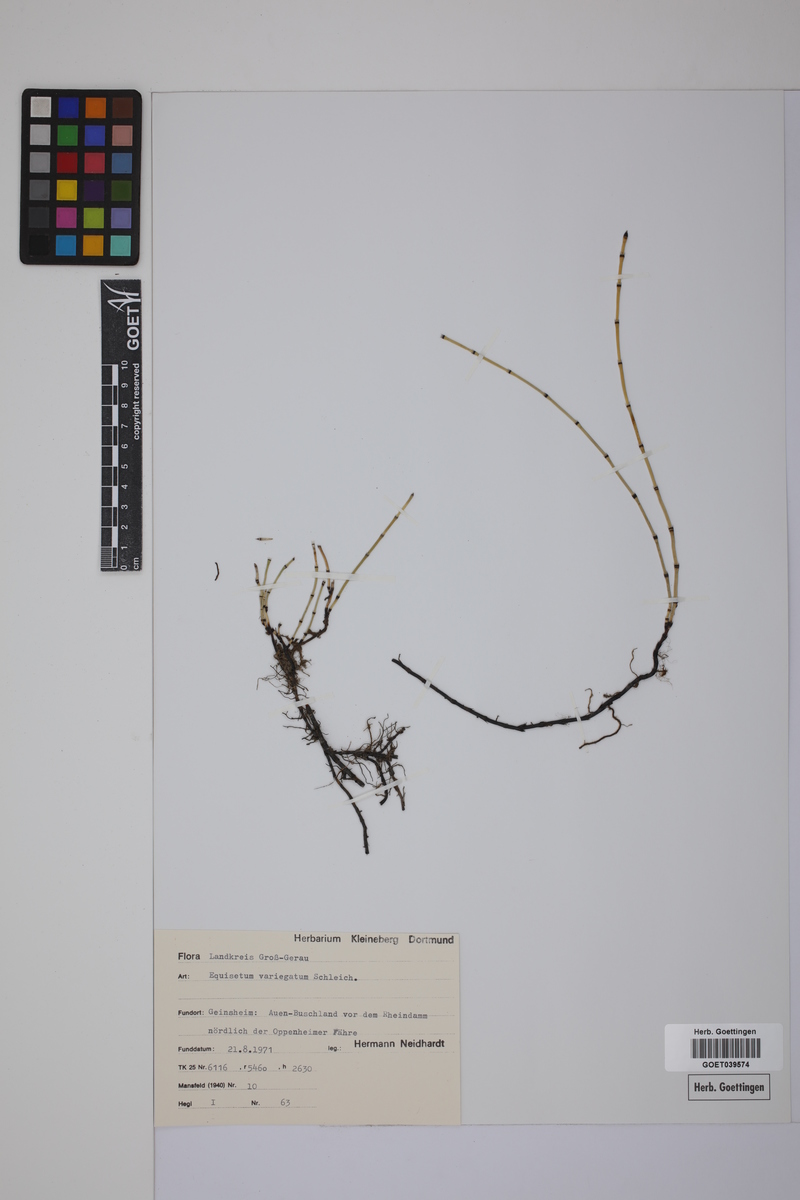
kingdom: Plantae
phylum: Tracheophyta
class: Polypodiopsida
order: Equisetales
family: Equisetaceae
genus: Equisetum
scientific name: Equisetum variegatum
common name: Variegated horsetail
